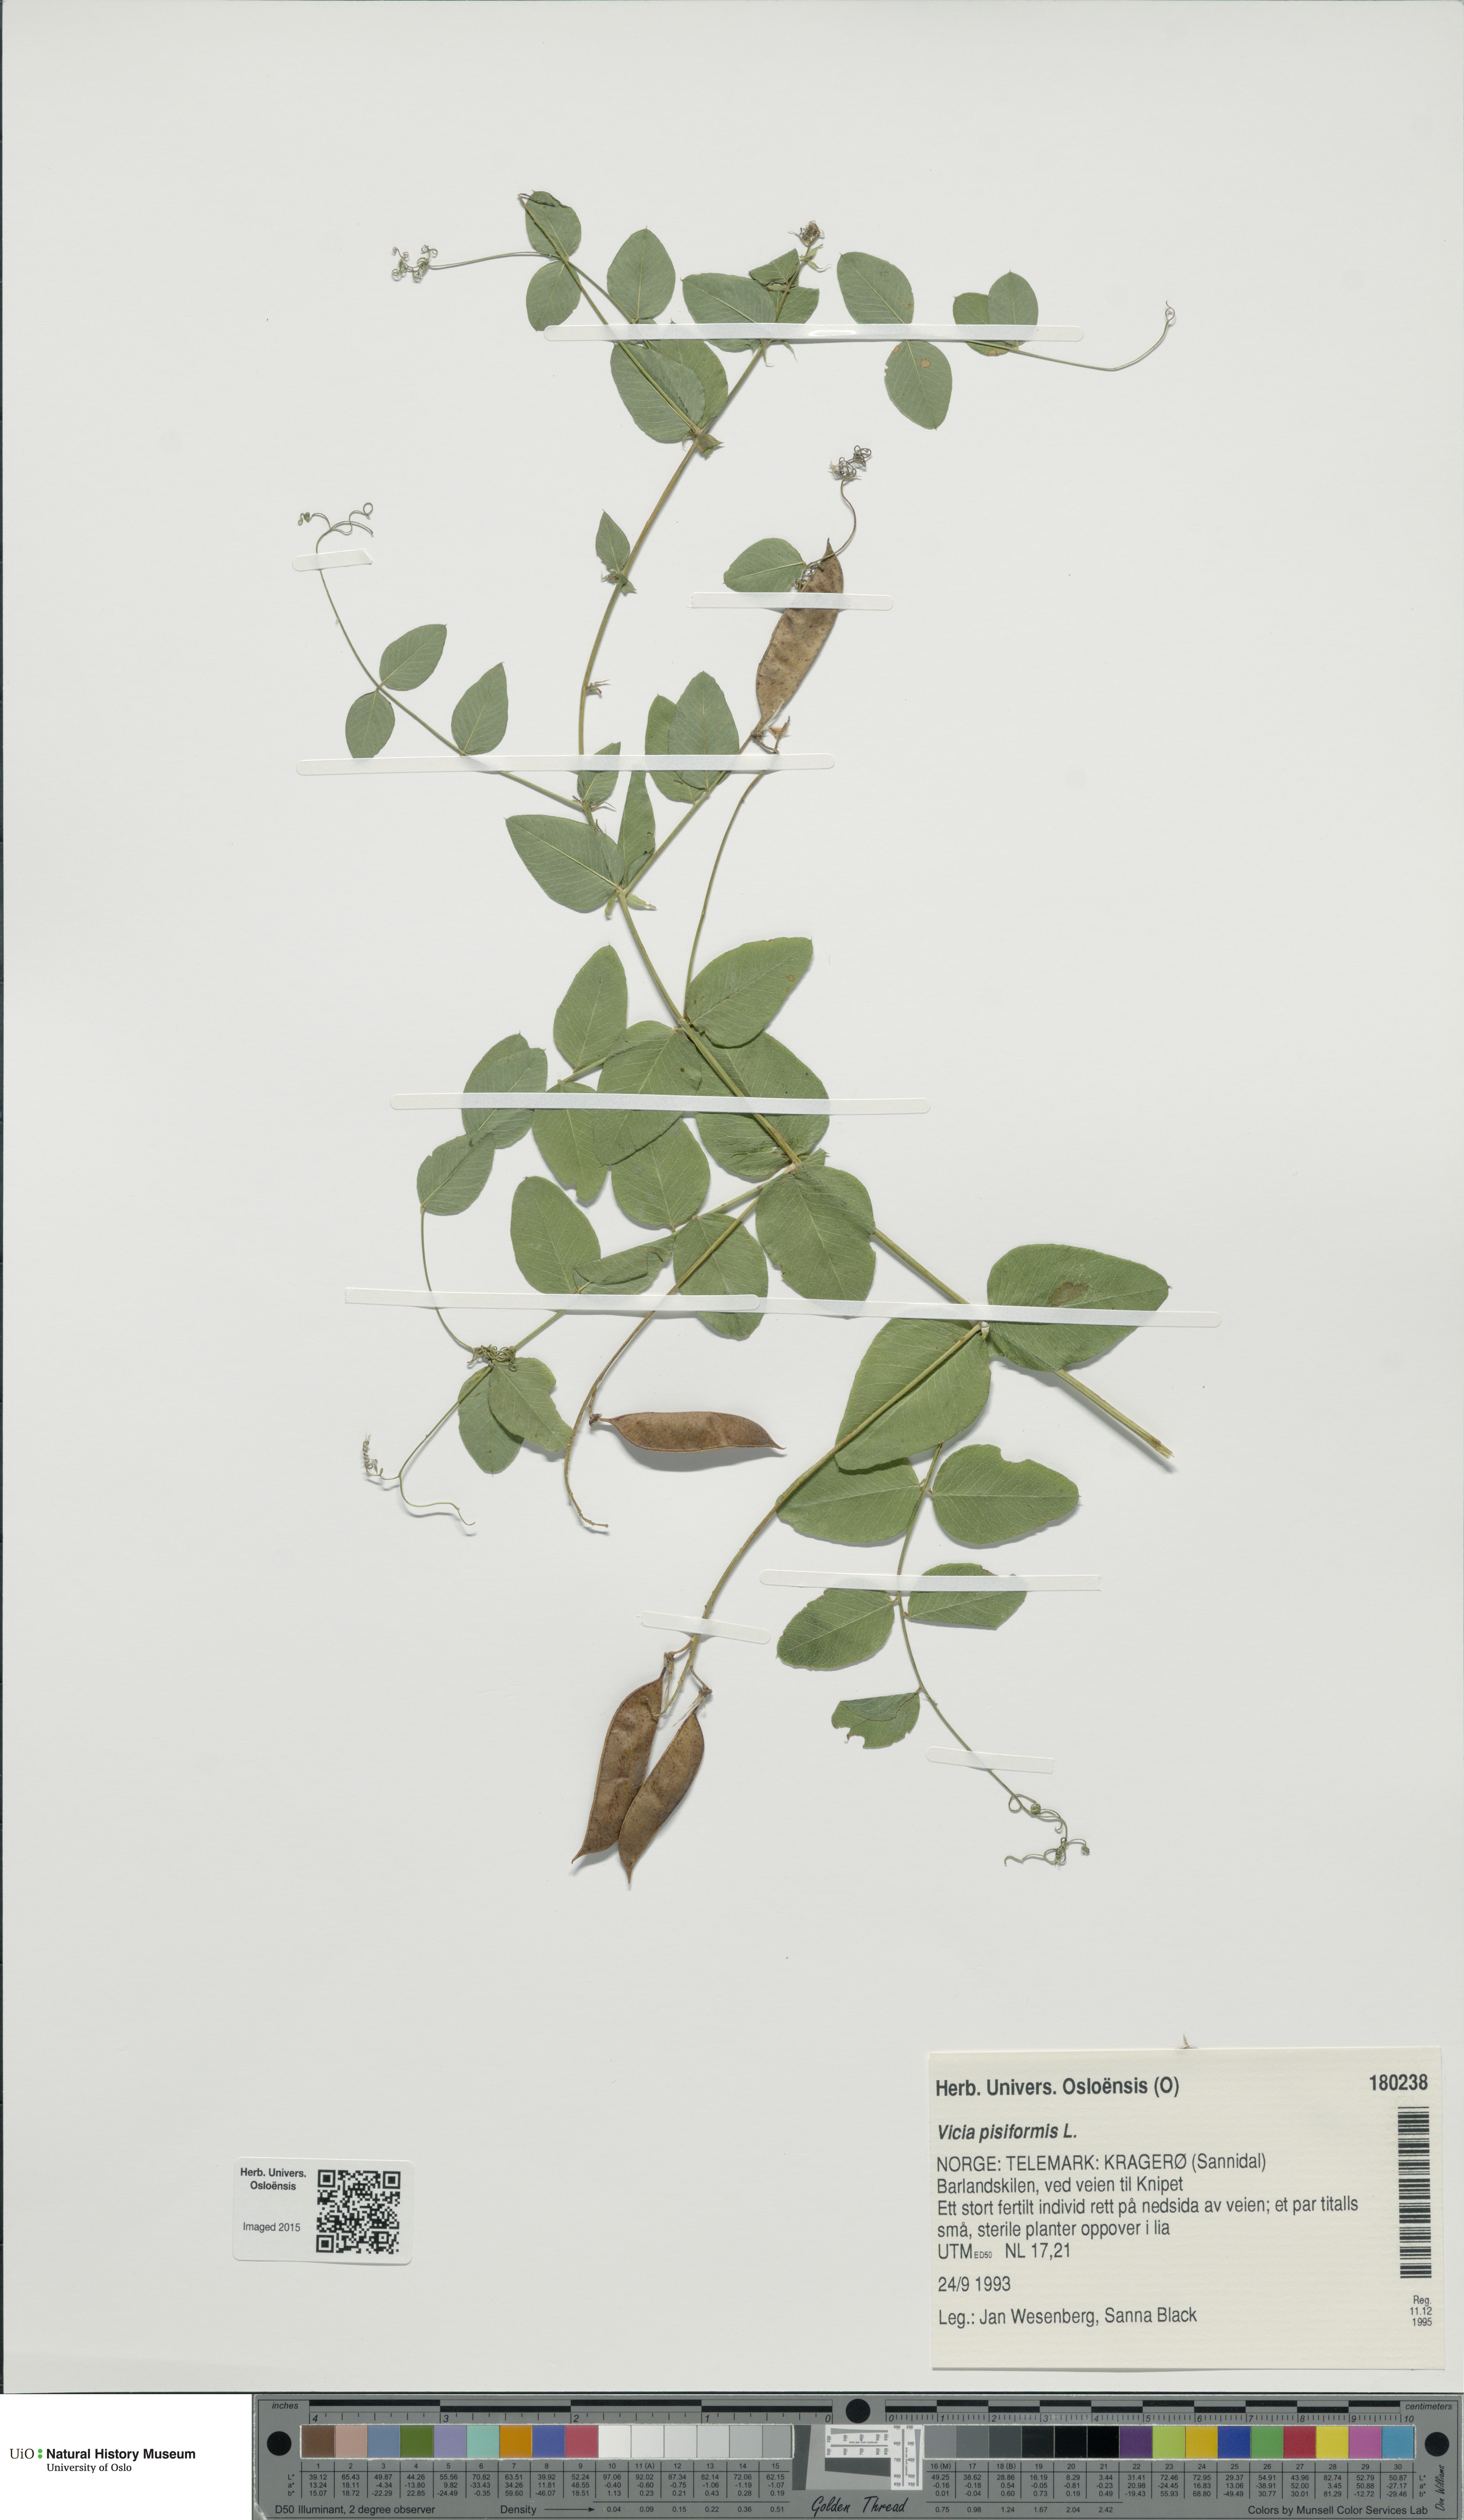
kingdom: Plantae
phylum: Tracheophyta
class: Magnoliopsida
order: Fabales
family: Fabaceae
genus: Vicia
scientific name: Vicia pisiformis
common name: Pale-flower vetch
